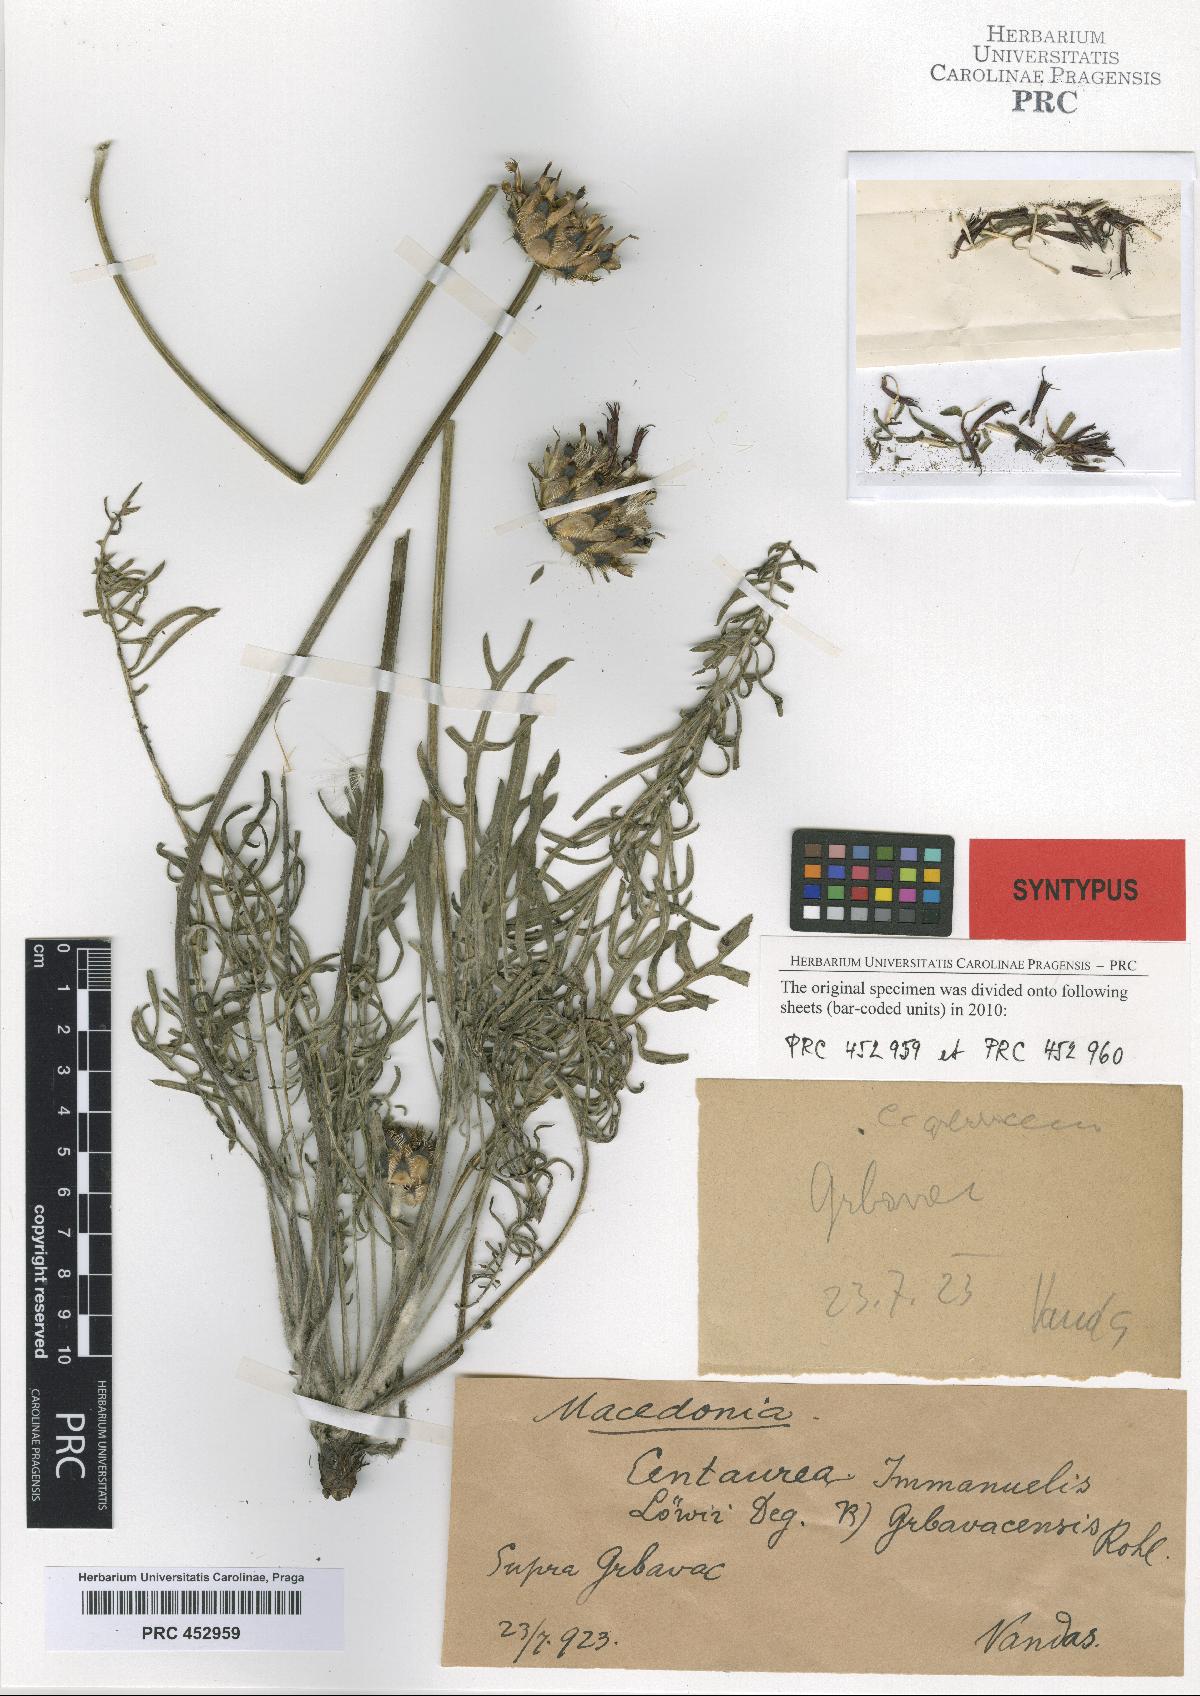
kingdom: Plantae
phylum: Tracheophyta
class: Magnoliopsida
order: Asterales
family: Asteraceae
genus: Centaurea
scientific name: Centaurea grbavacensis
